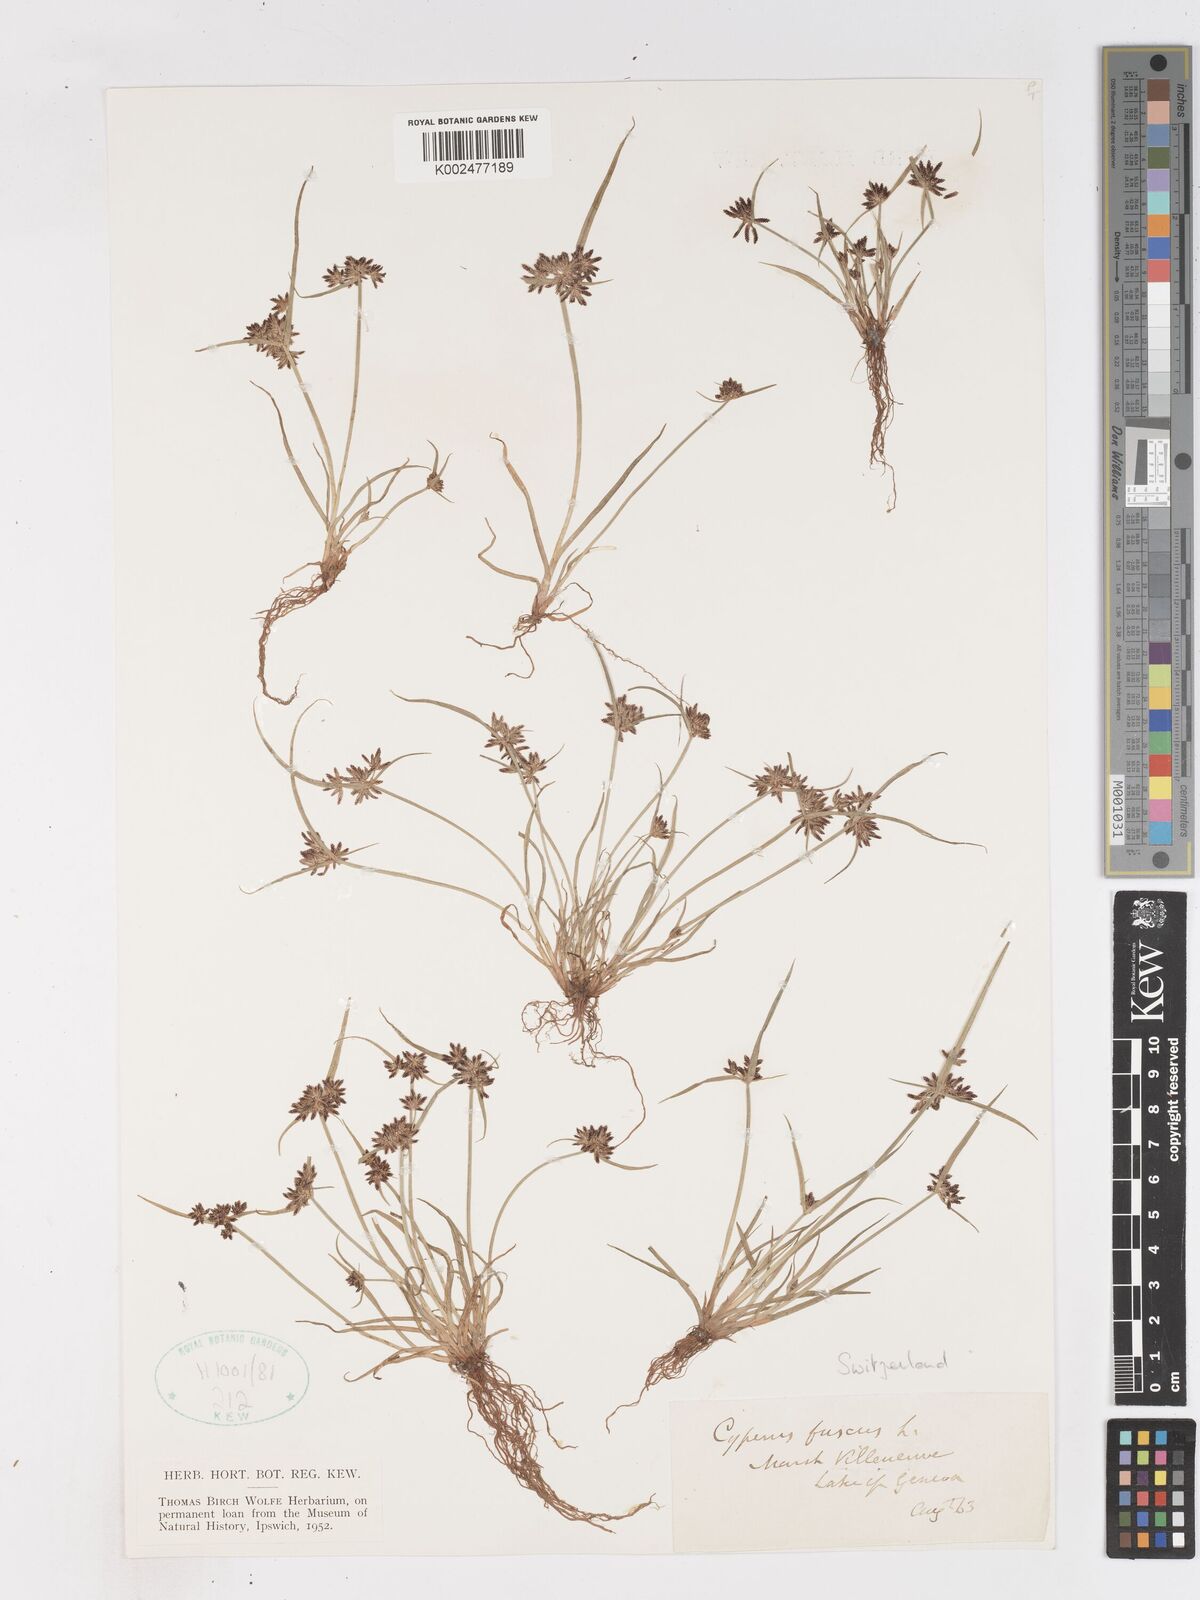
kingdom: Plantae
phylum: Tracheophyta
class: Liliopsida
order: Poales
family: Cyperaceae
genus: Cyperus
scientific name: Cyperus fuscus
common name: Brown galingale
